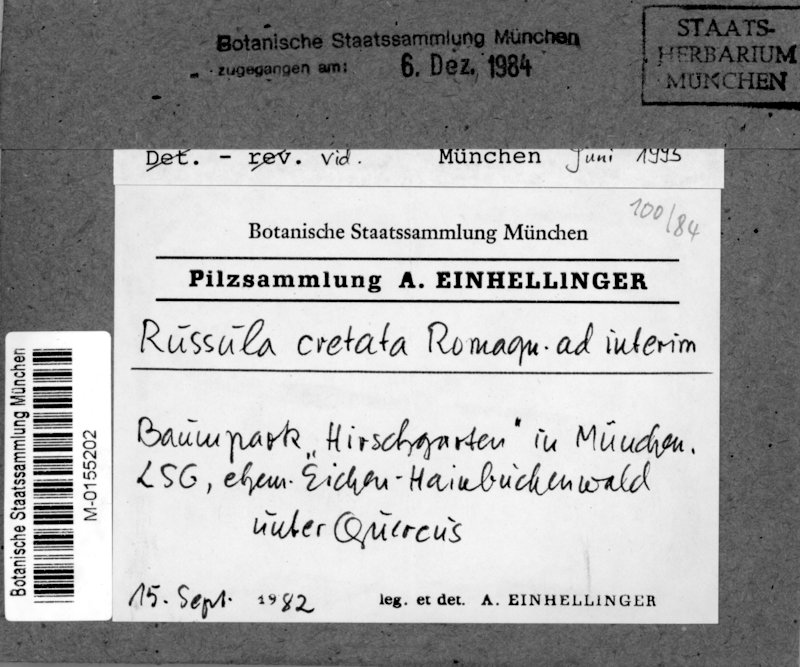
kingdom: Fungi
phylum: Basidiomycota
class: Agaricomycetes
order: Russulales
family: Russulaceae
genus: Russula
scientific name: Russula cretata
